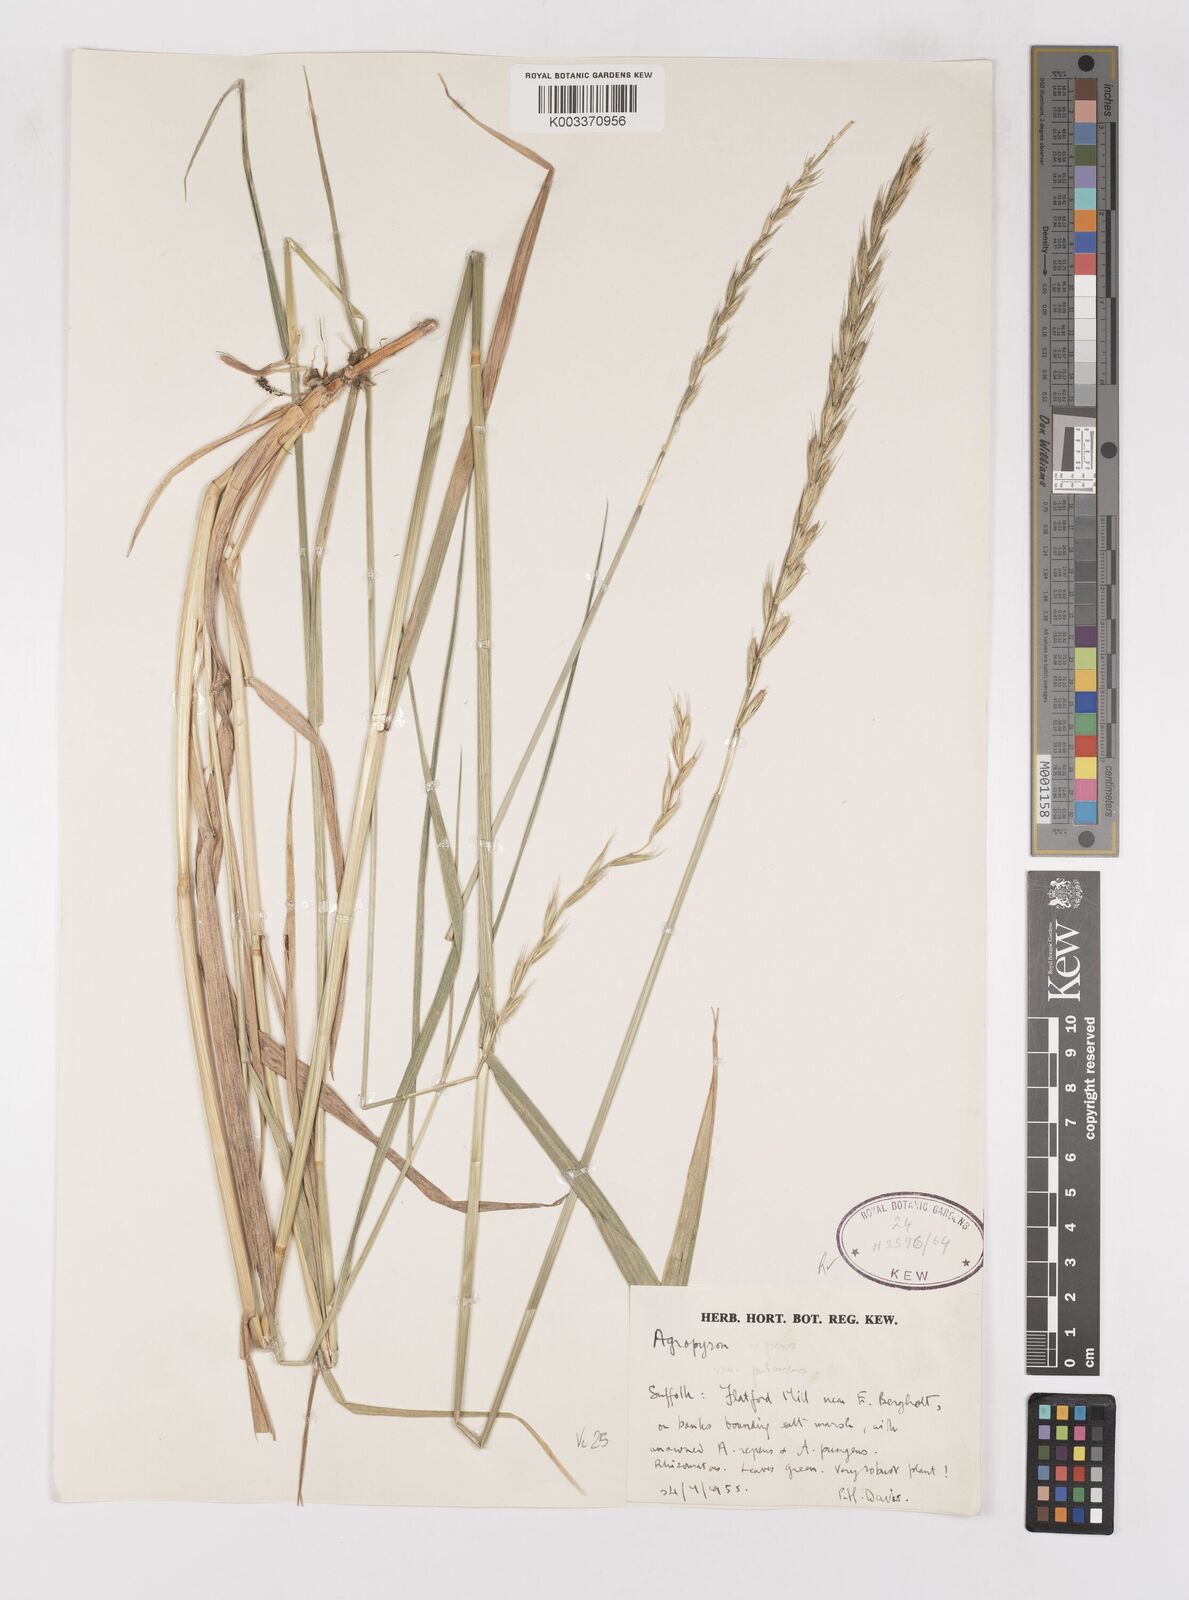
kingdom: Plantae
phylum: Tracheophyta
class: Liliopsida
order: Poales
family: Poaceae
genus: Elymus
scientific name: Elymus repens
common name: Quackgrass
